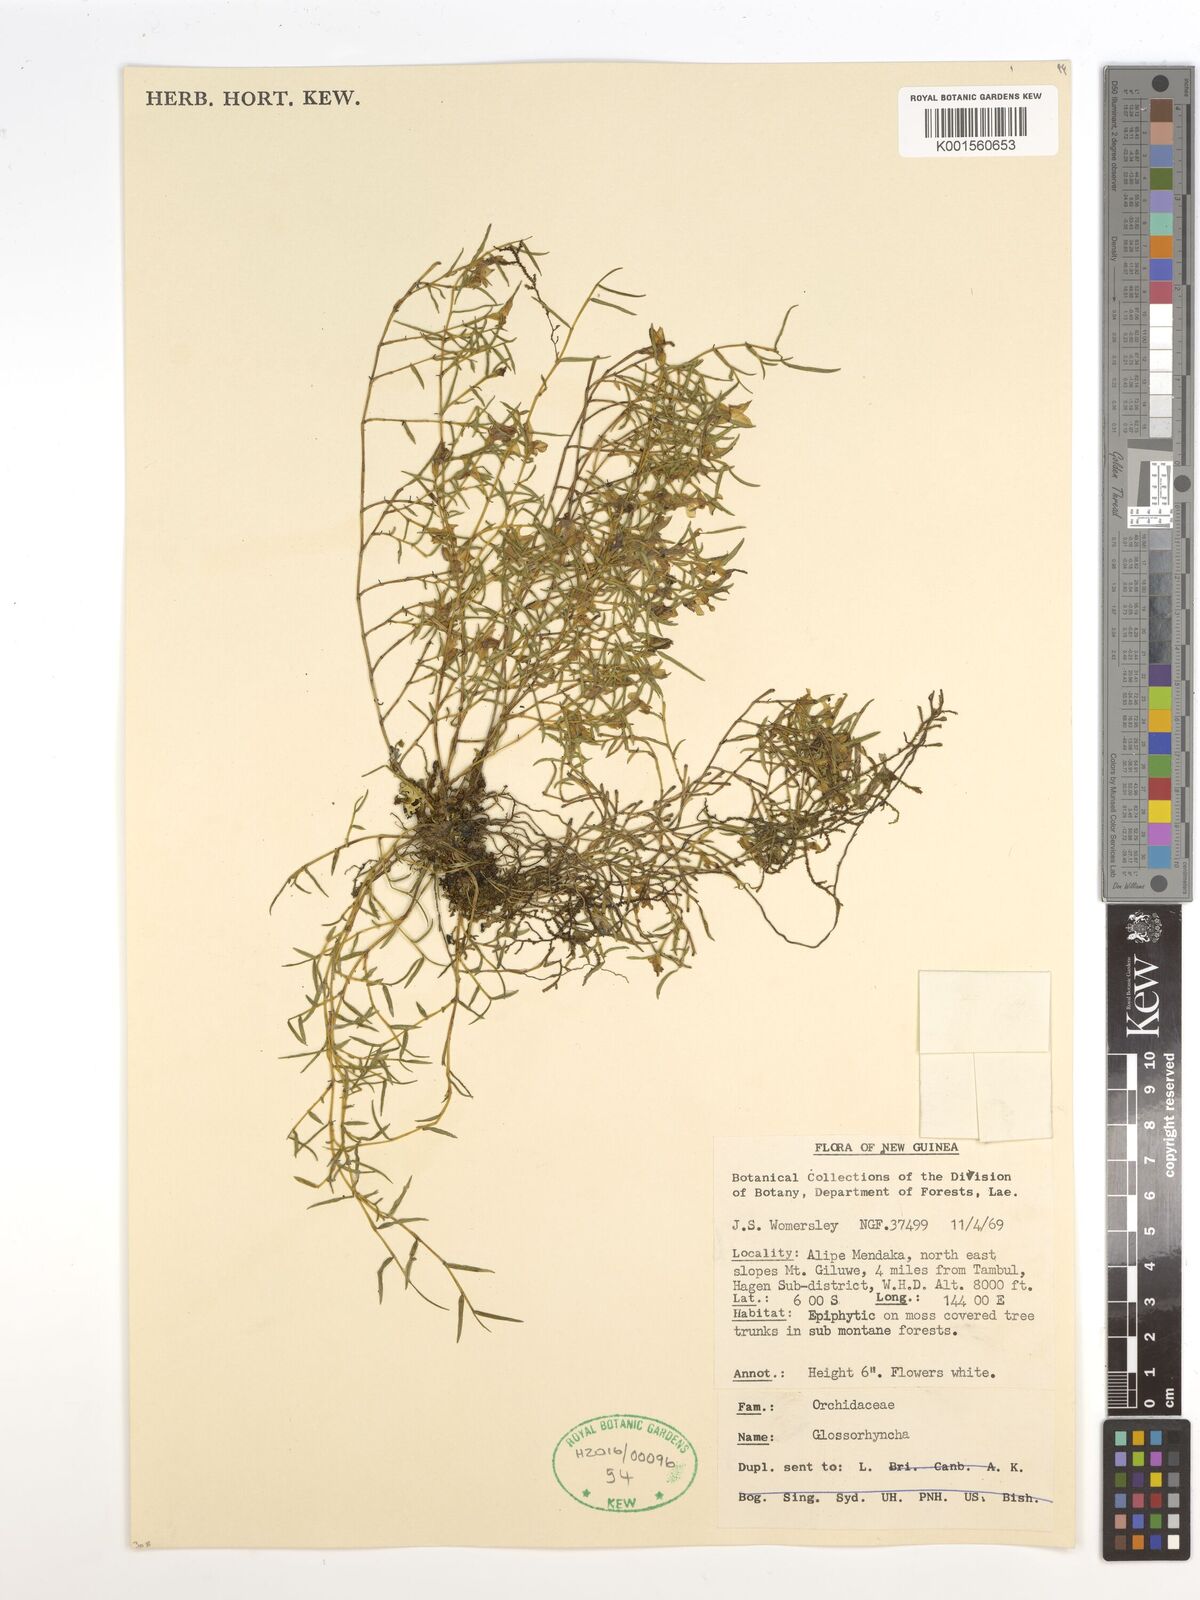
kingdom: Plantae
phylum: Tracheophyta
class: Liliopsida
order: Asparagales
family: Orchidaceae
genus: Glomera
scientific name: Glomera
